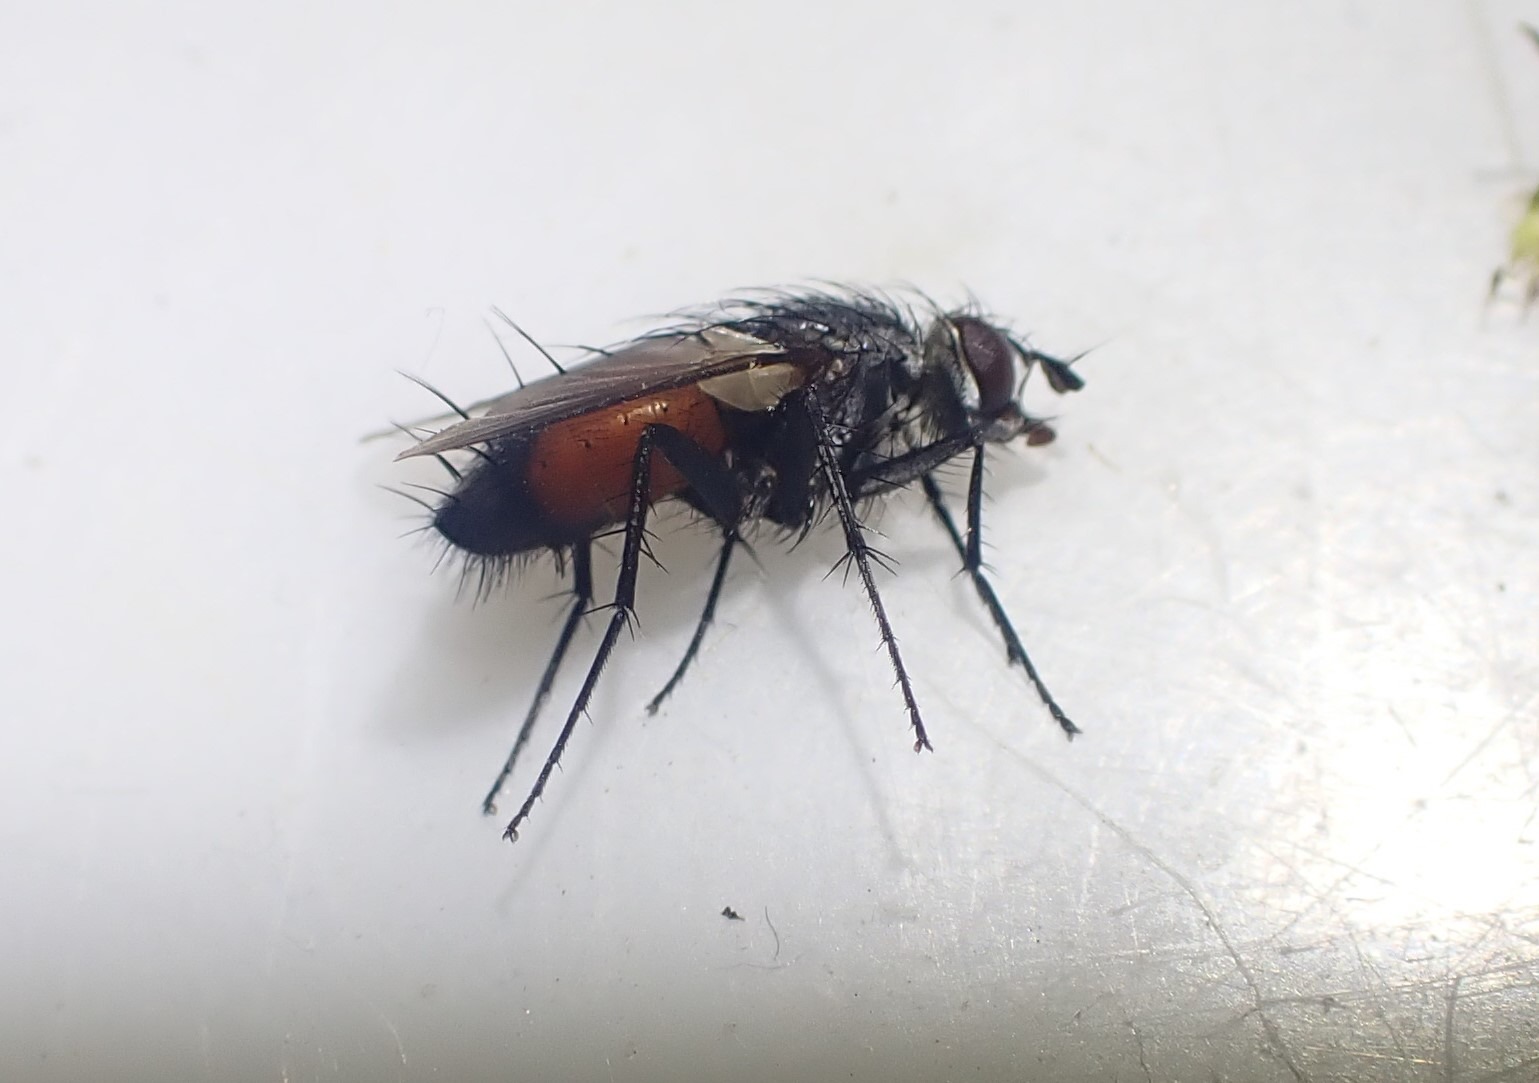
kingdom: Animalia
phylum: Arthropoda
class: Insecta
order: Diptera
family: Tachinidae
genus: Eriothrix
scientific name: Eriothrix rufomaculatus
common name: Rød snylteflue
